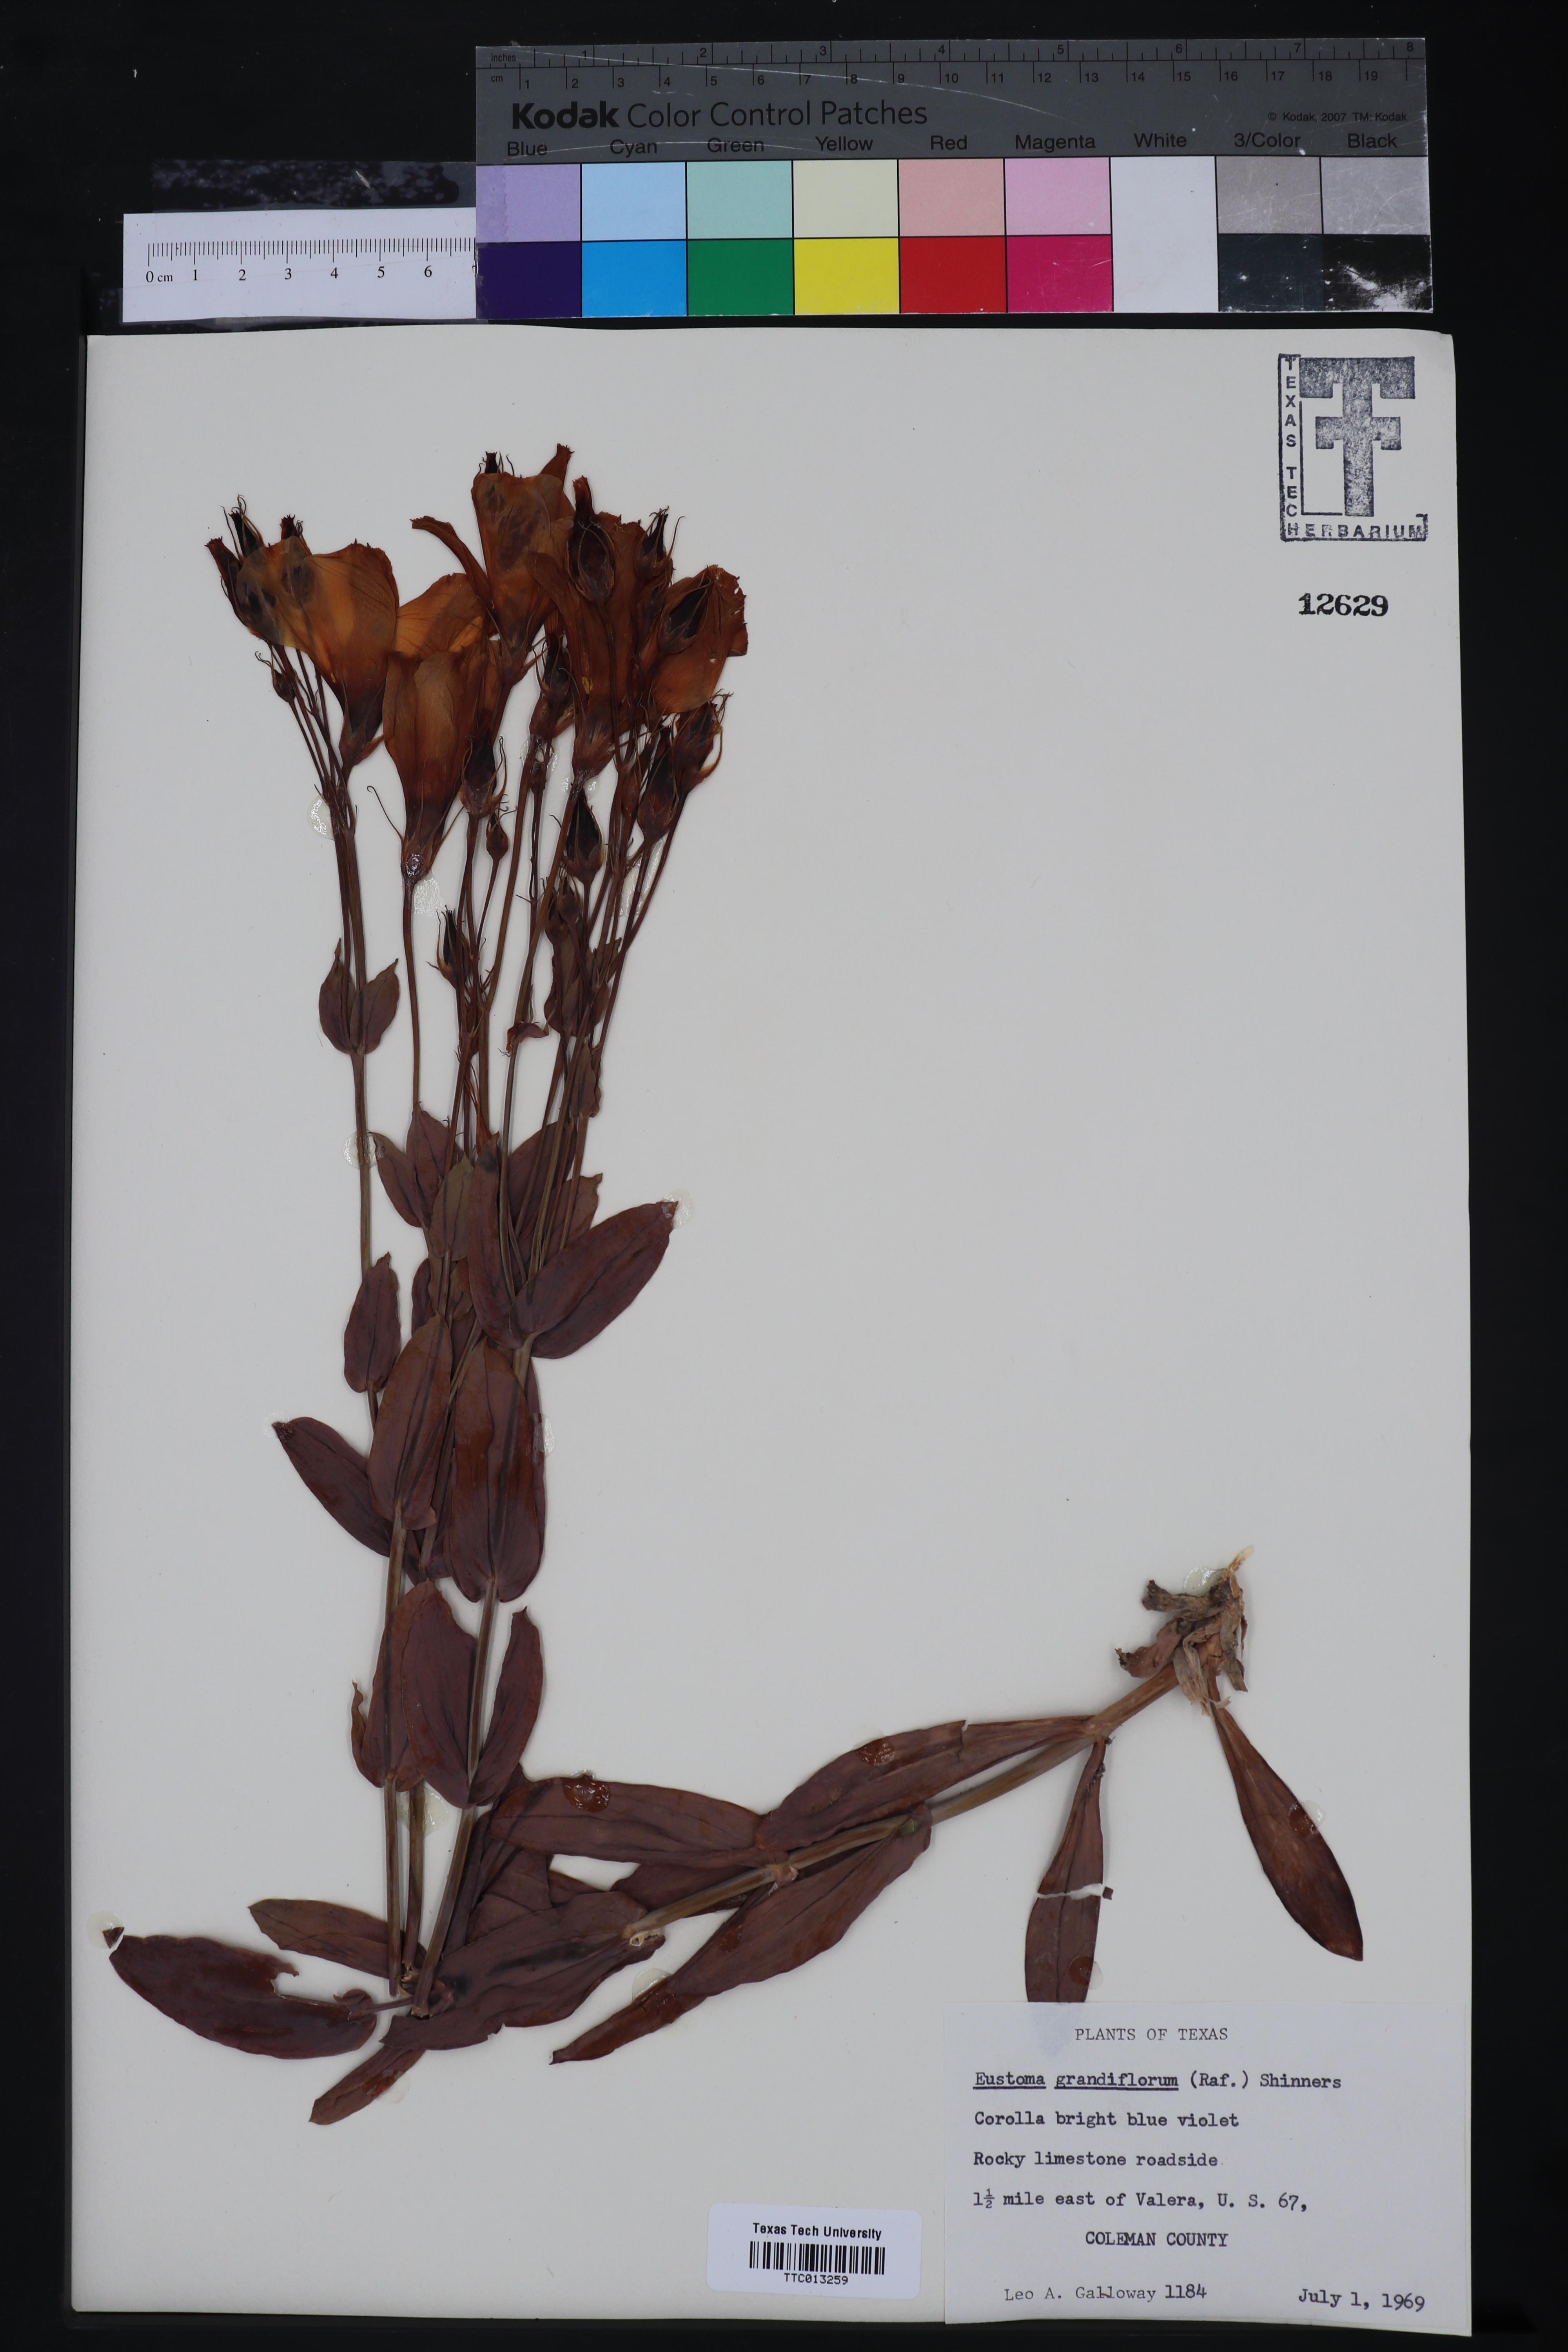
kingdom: Plantae
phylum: Tracheophyta
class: Magnoliopsida
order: Gentianales
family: Gentianaceae
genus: Eustoma
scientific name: Eustoma russellianum
